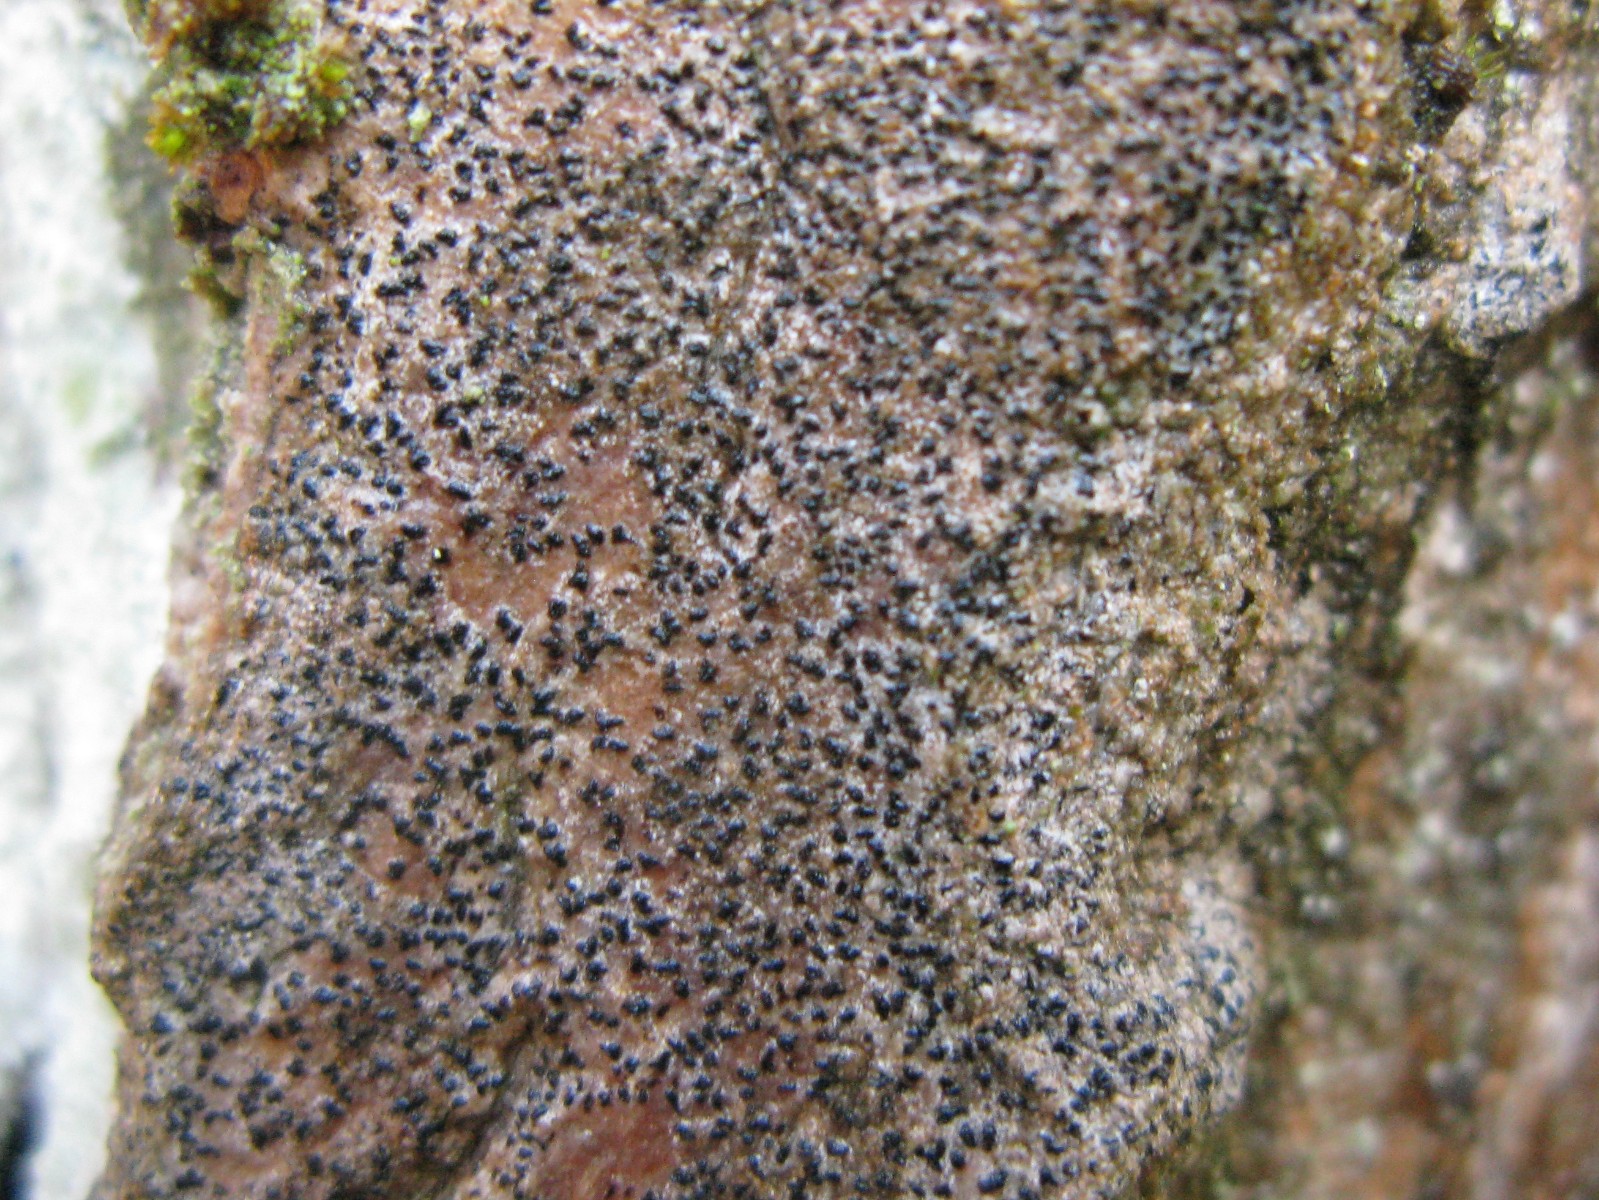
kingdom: Fungi
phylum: Ascomycota
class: Arthoniomycetes
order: Arthoniales
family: Roccellaceae
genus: Pseudoschismatomma
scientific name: Pseudoschismatomma rufescens
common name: brun bogstavlav
